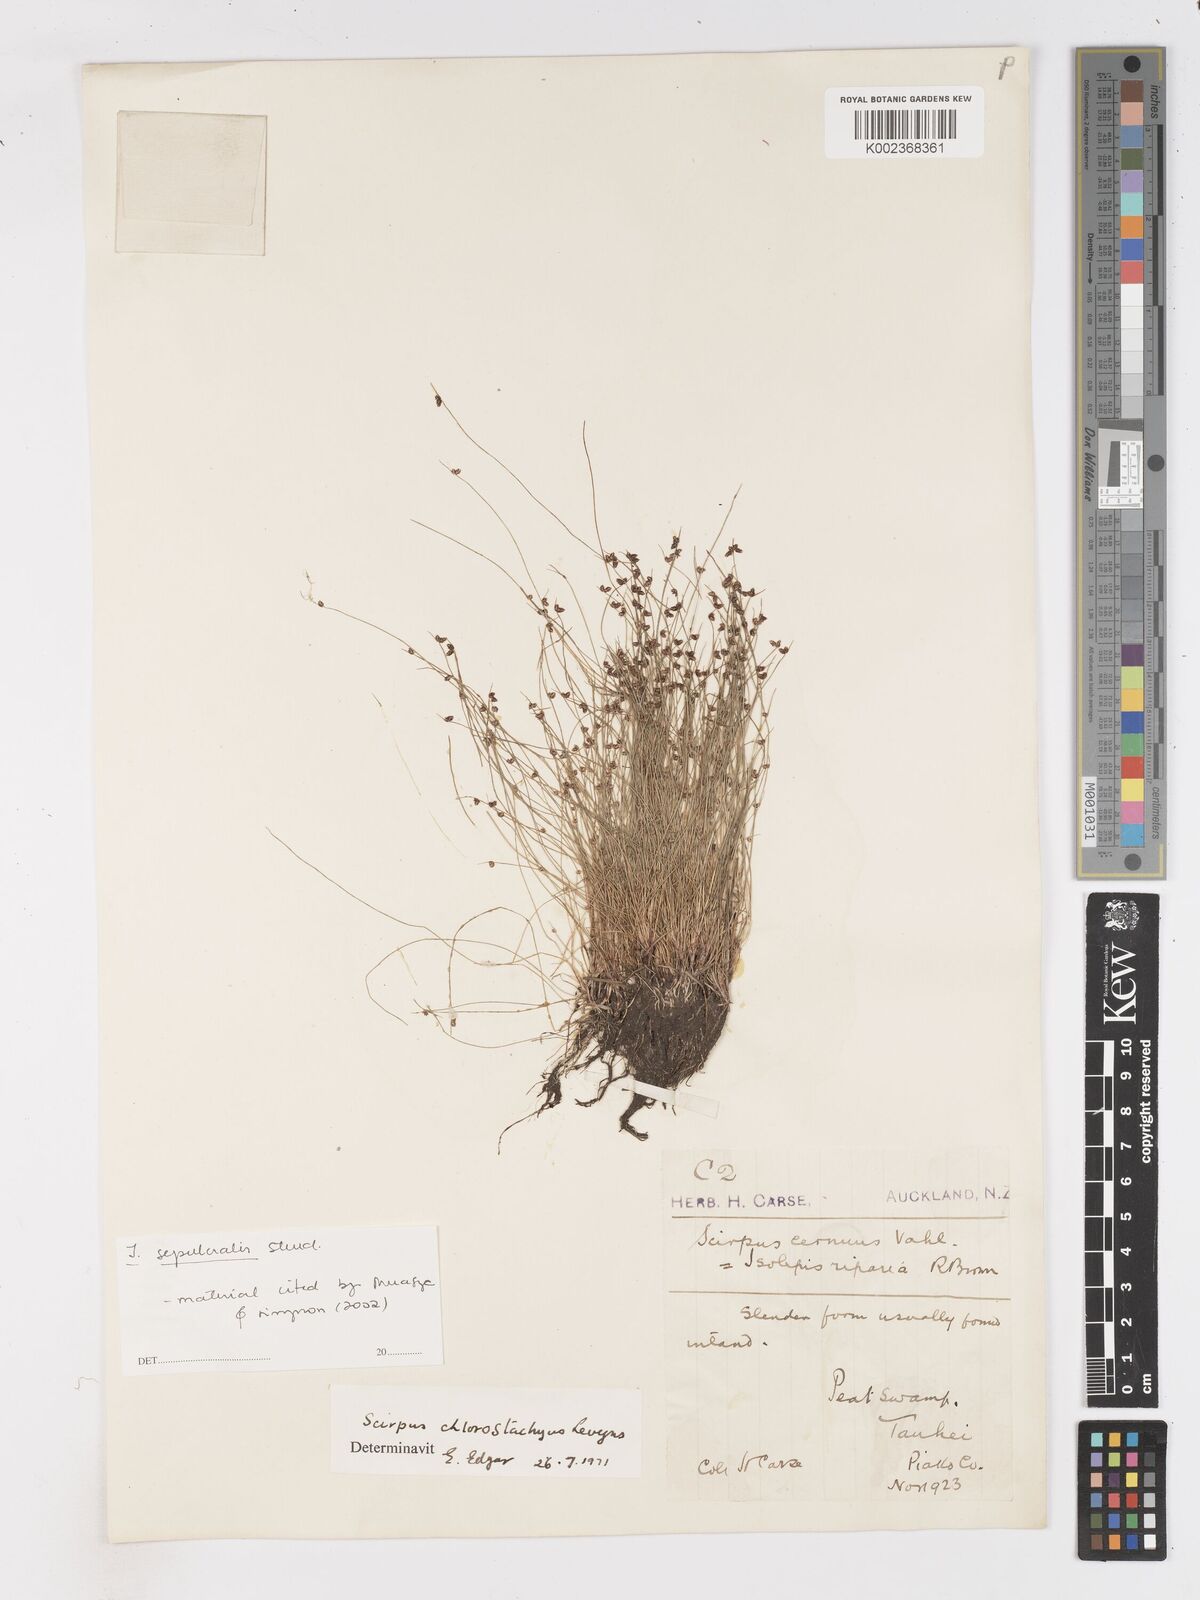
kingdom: Plantae
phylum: Tracheophyta
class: Liliopsida
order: Poales
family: Cyperaceae
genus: Isolepis
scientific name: Isolepis sepulcralis
